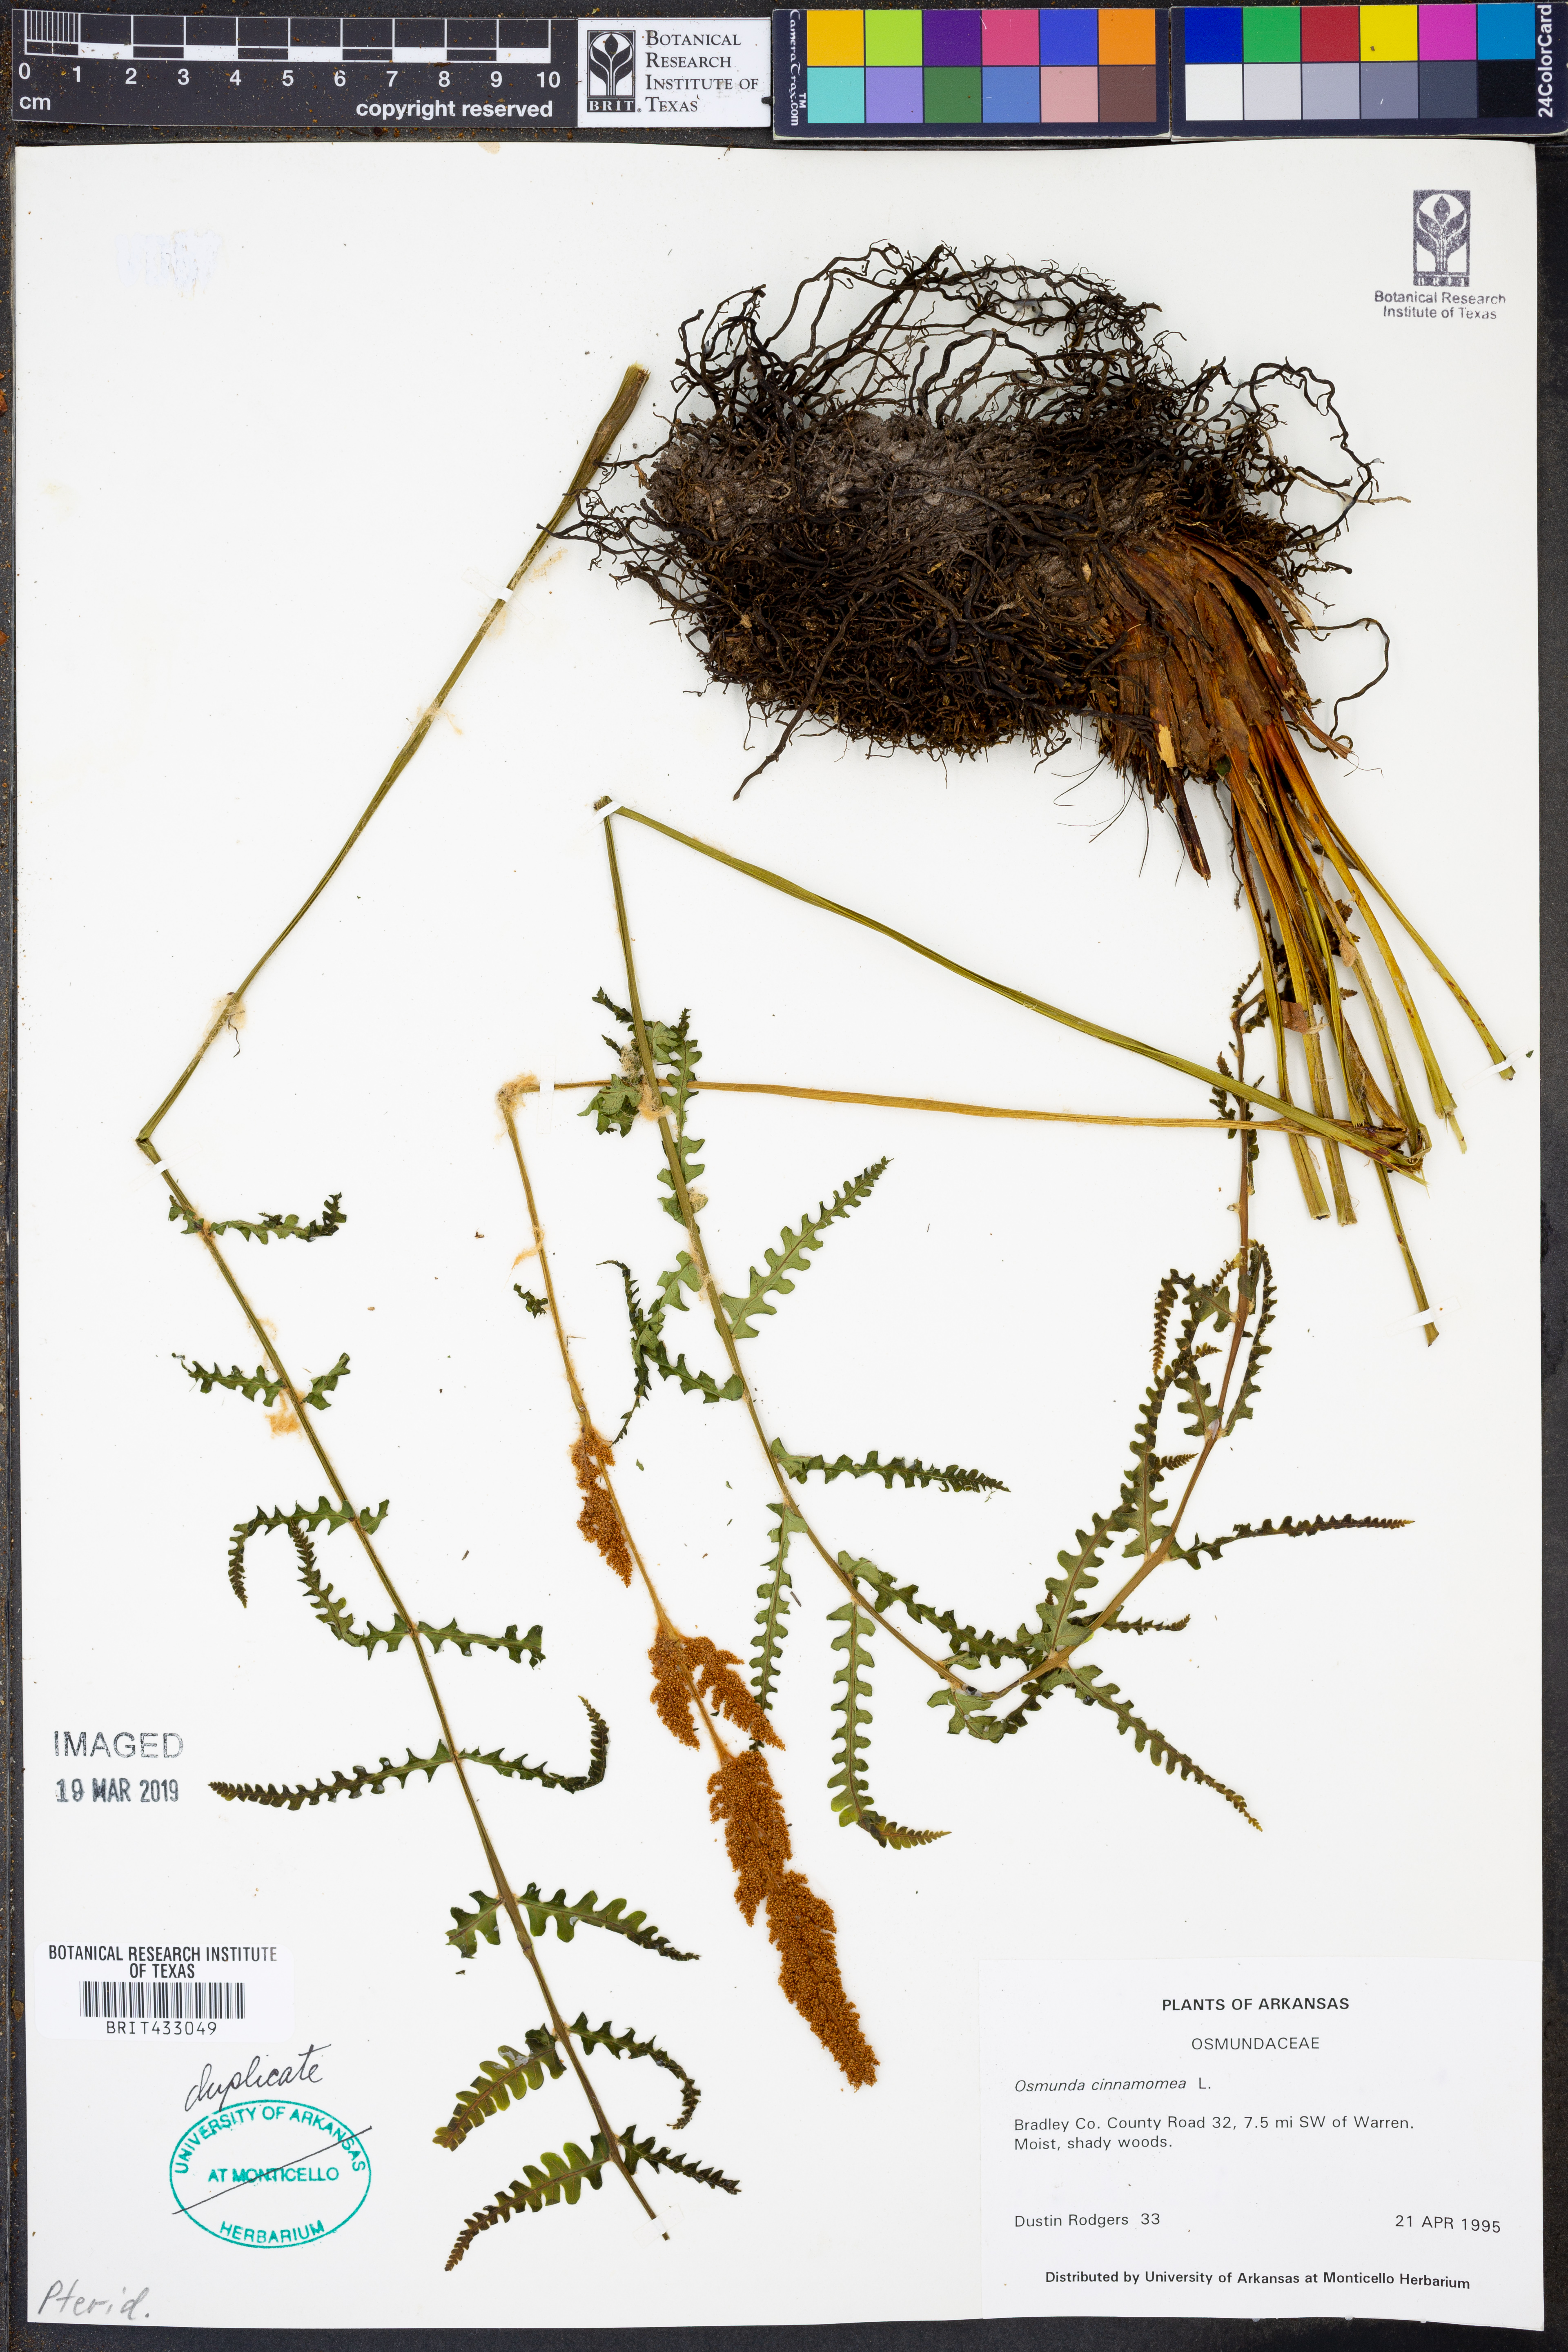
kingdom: Plantae
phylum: Tracheophyta
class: Polypodiopsida
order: Osmundales
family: Osmundaceae
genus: Osmundastrum
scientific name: Osmundastrum cinnamomeum
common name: Cinnamon fern
